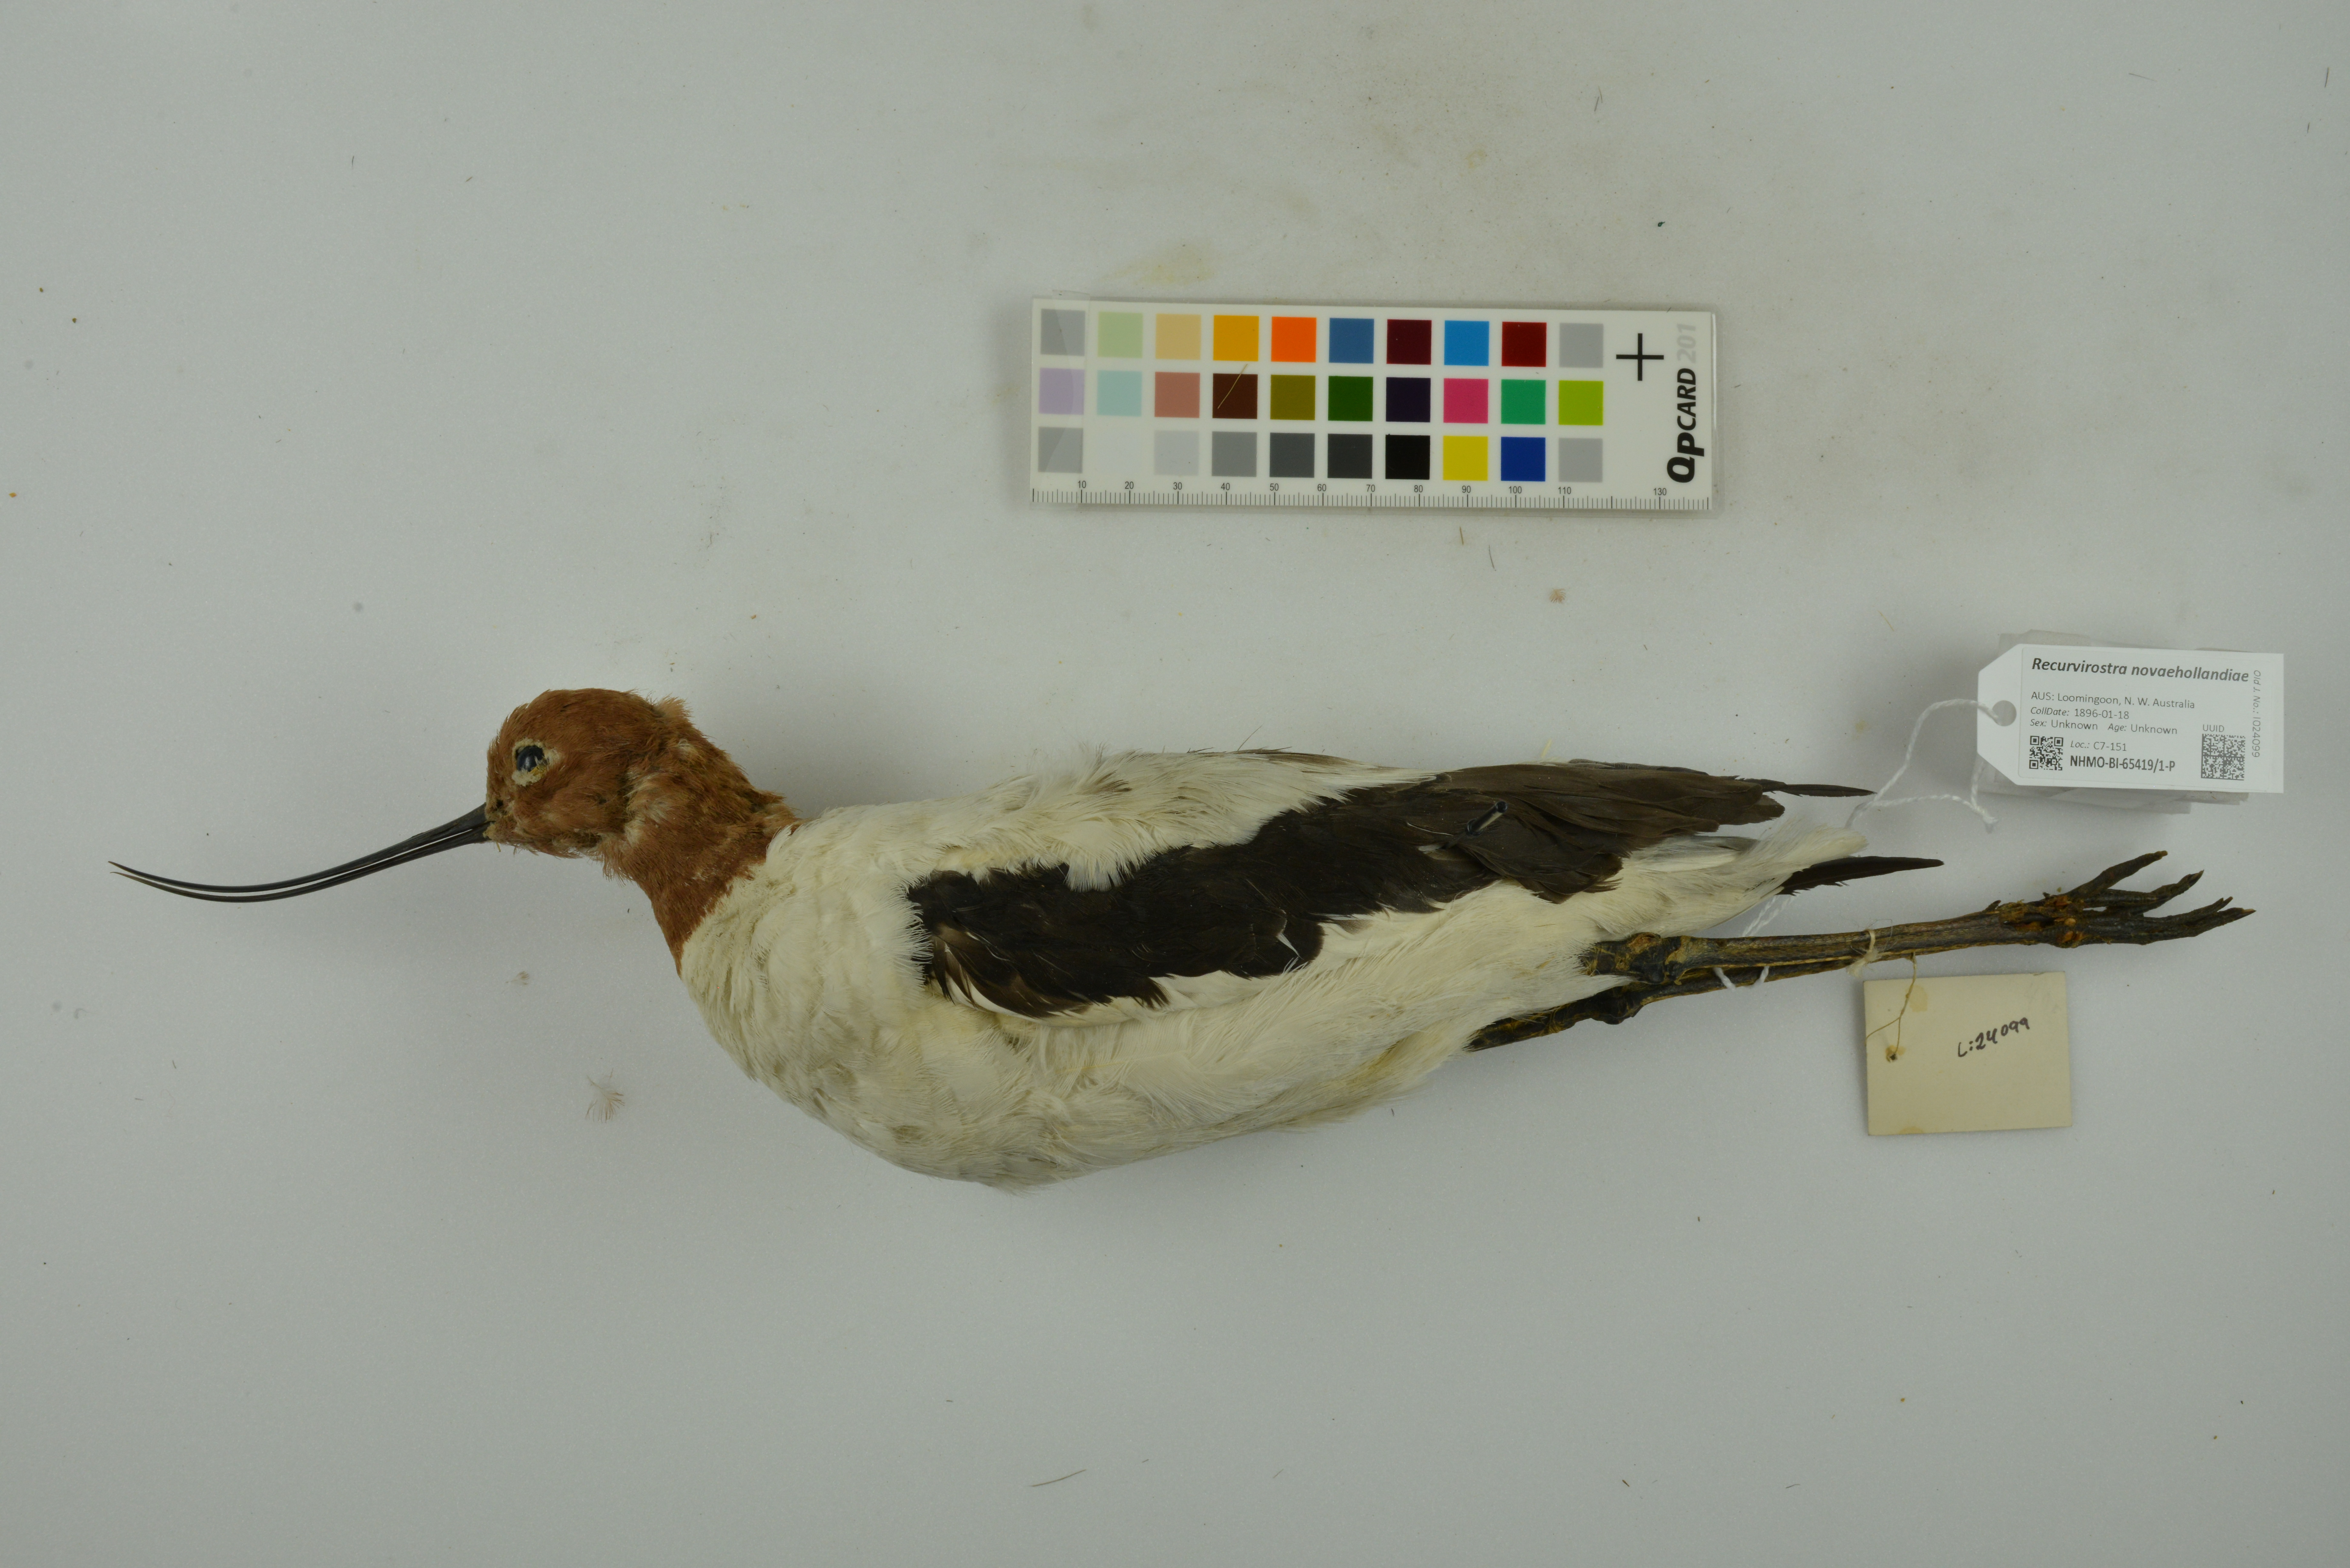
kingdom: Animalia
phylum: Chordata
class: Aves
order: Charadriiformes
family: Recurvirostridae
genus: Recurvirostra
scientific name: Recurvirostra novaehollandiae
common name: Red-necked avocet
